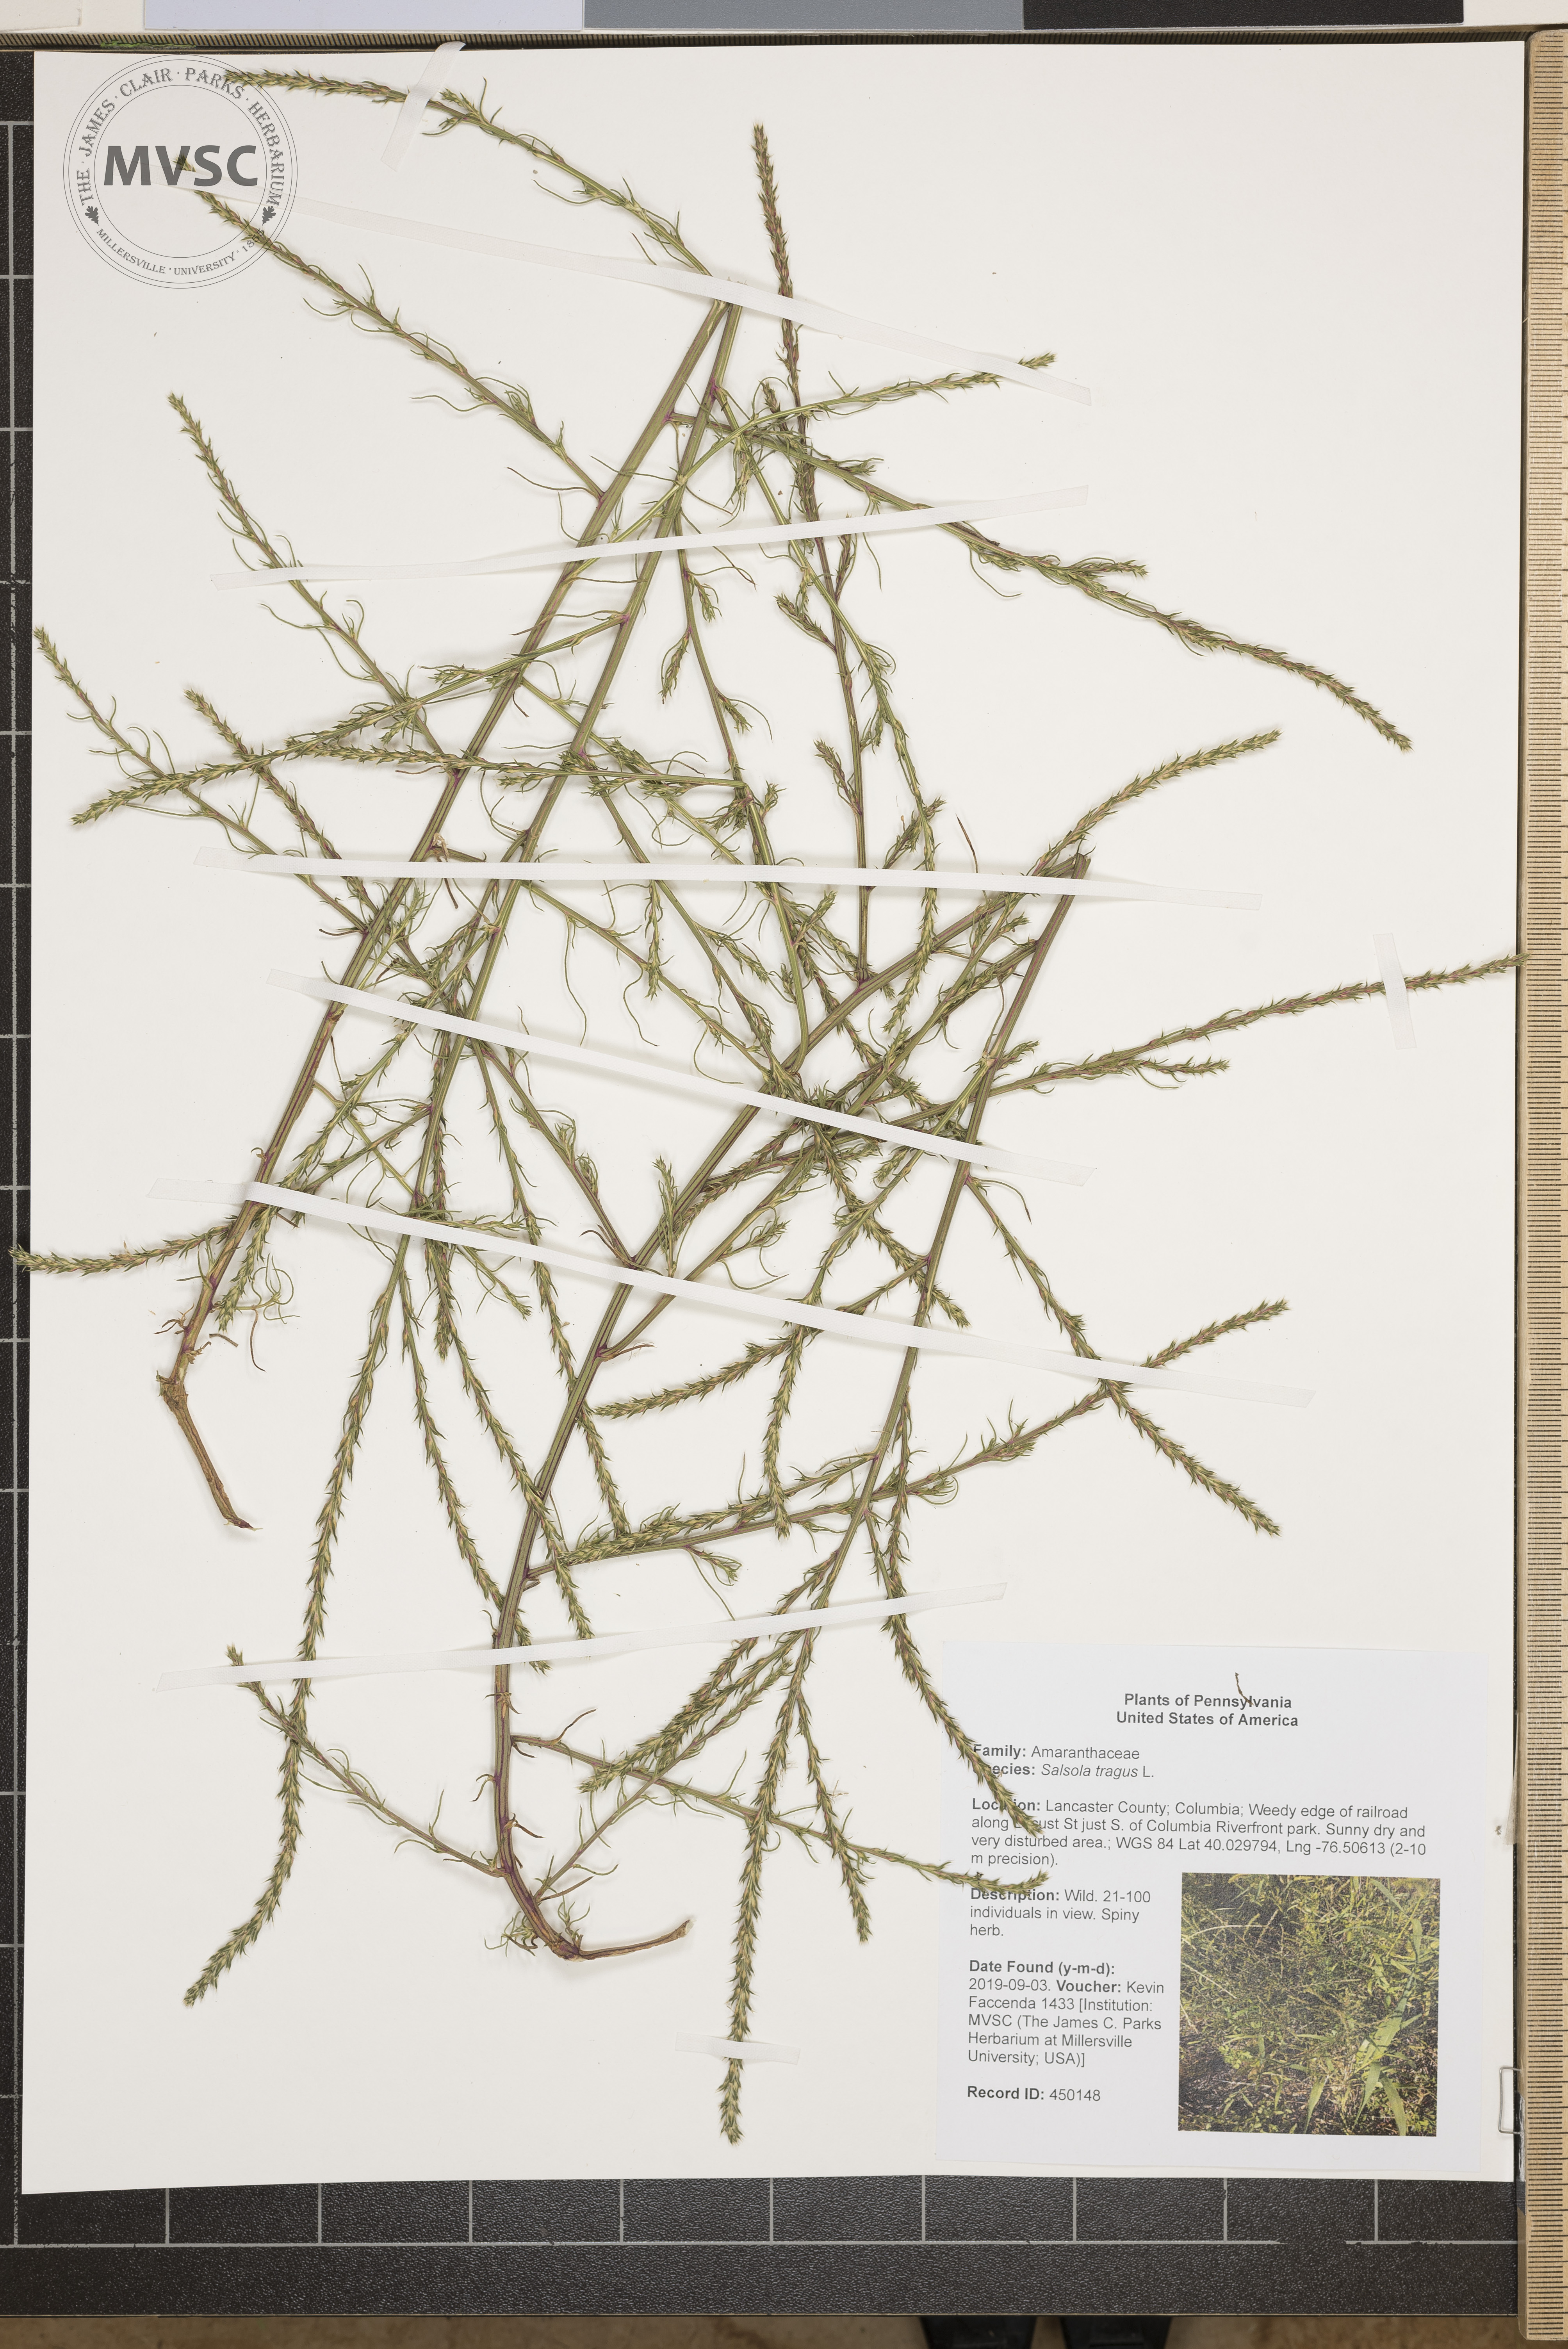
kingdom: Plantae
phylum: Tracheophyta
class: Magnoliopsida
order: Caryophyllales
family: Amaranthaceae
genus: Salsola
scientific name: Salsola tragus
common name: Prickly russian thistle
